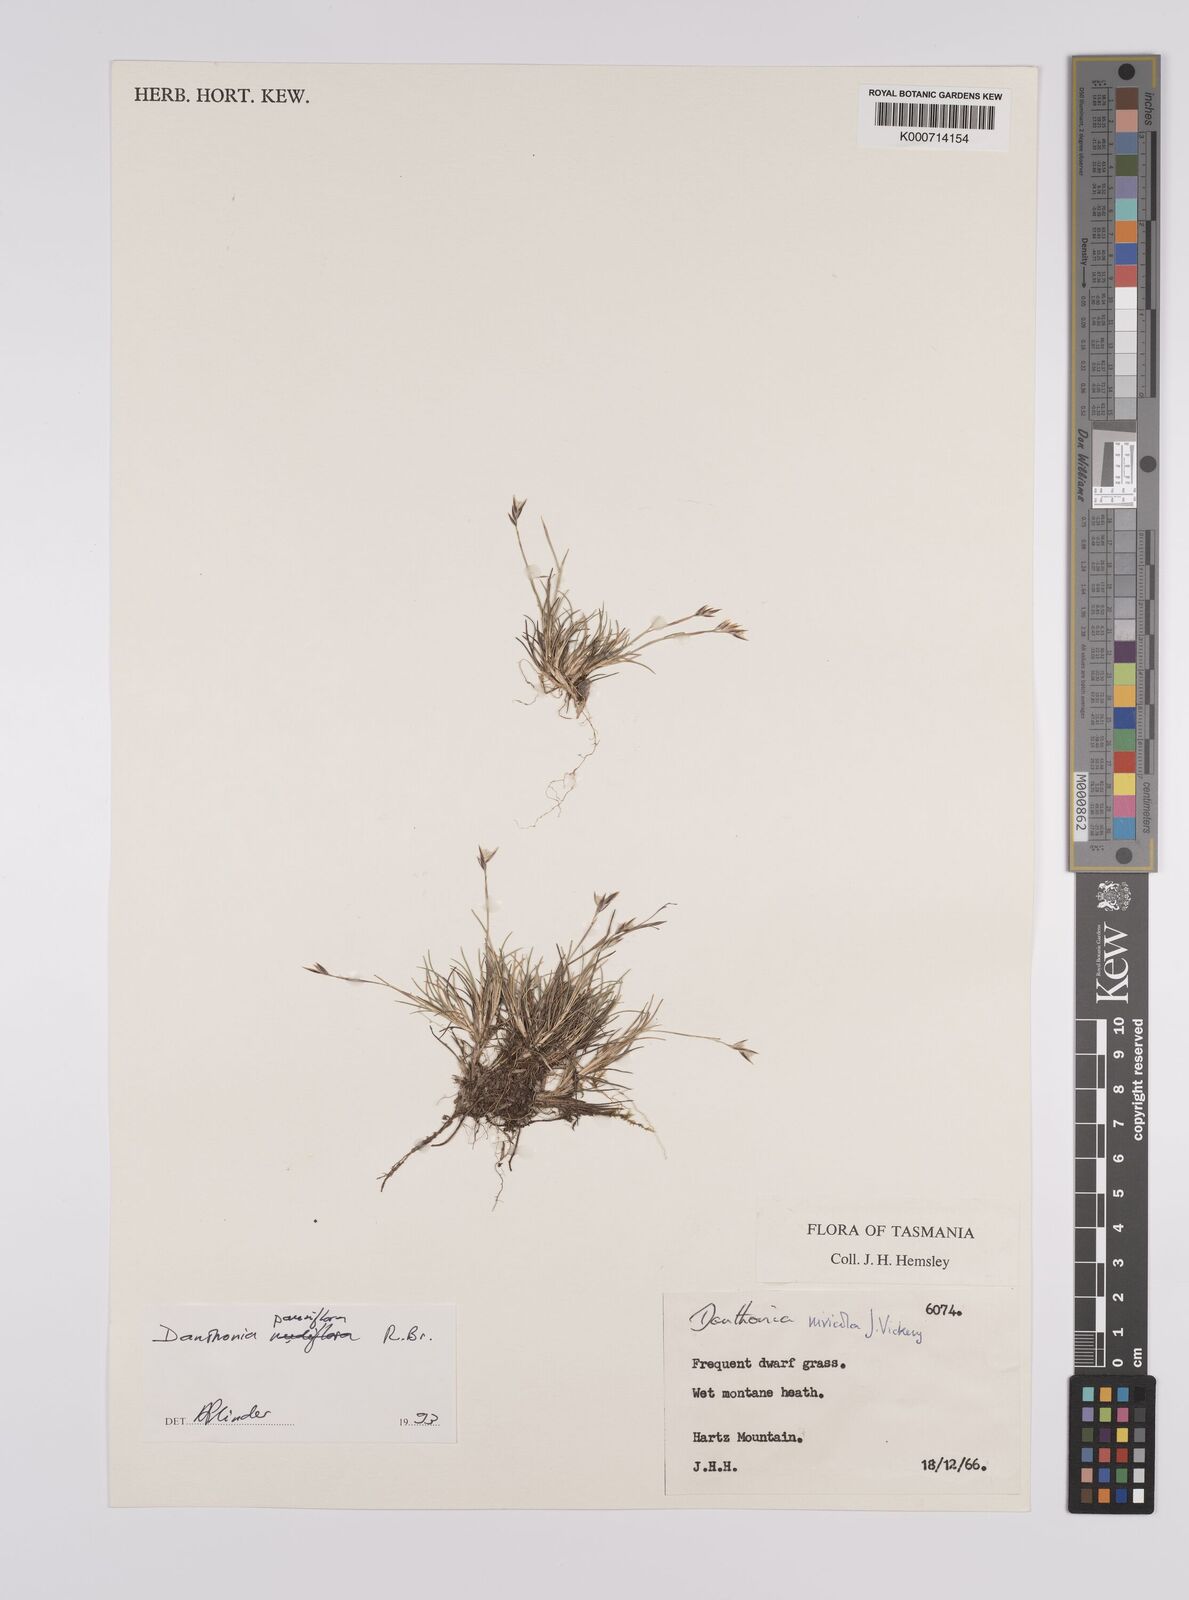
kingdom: Plantae
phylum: Tracheophyta
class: Liliopsida
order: Poales
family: Poaceae
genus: Rytidosperma
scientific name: Rytidosperma
